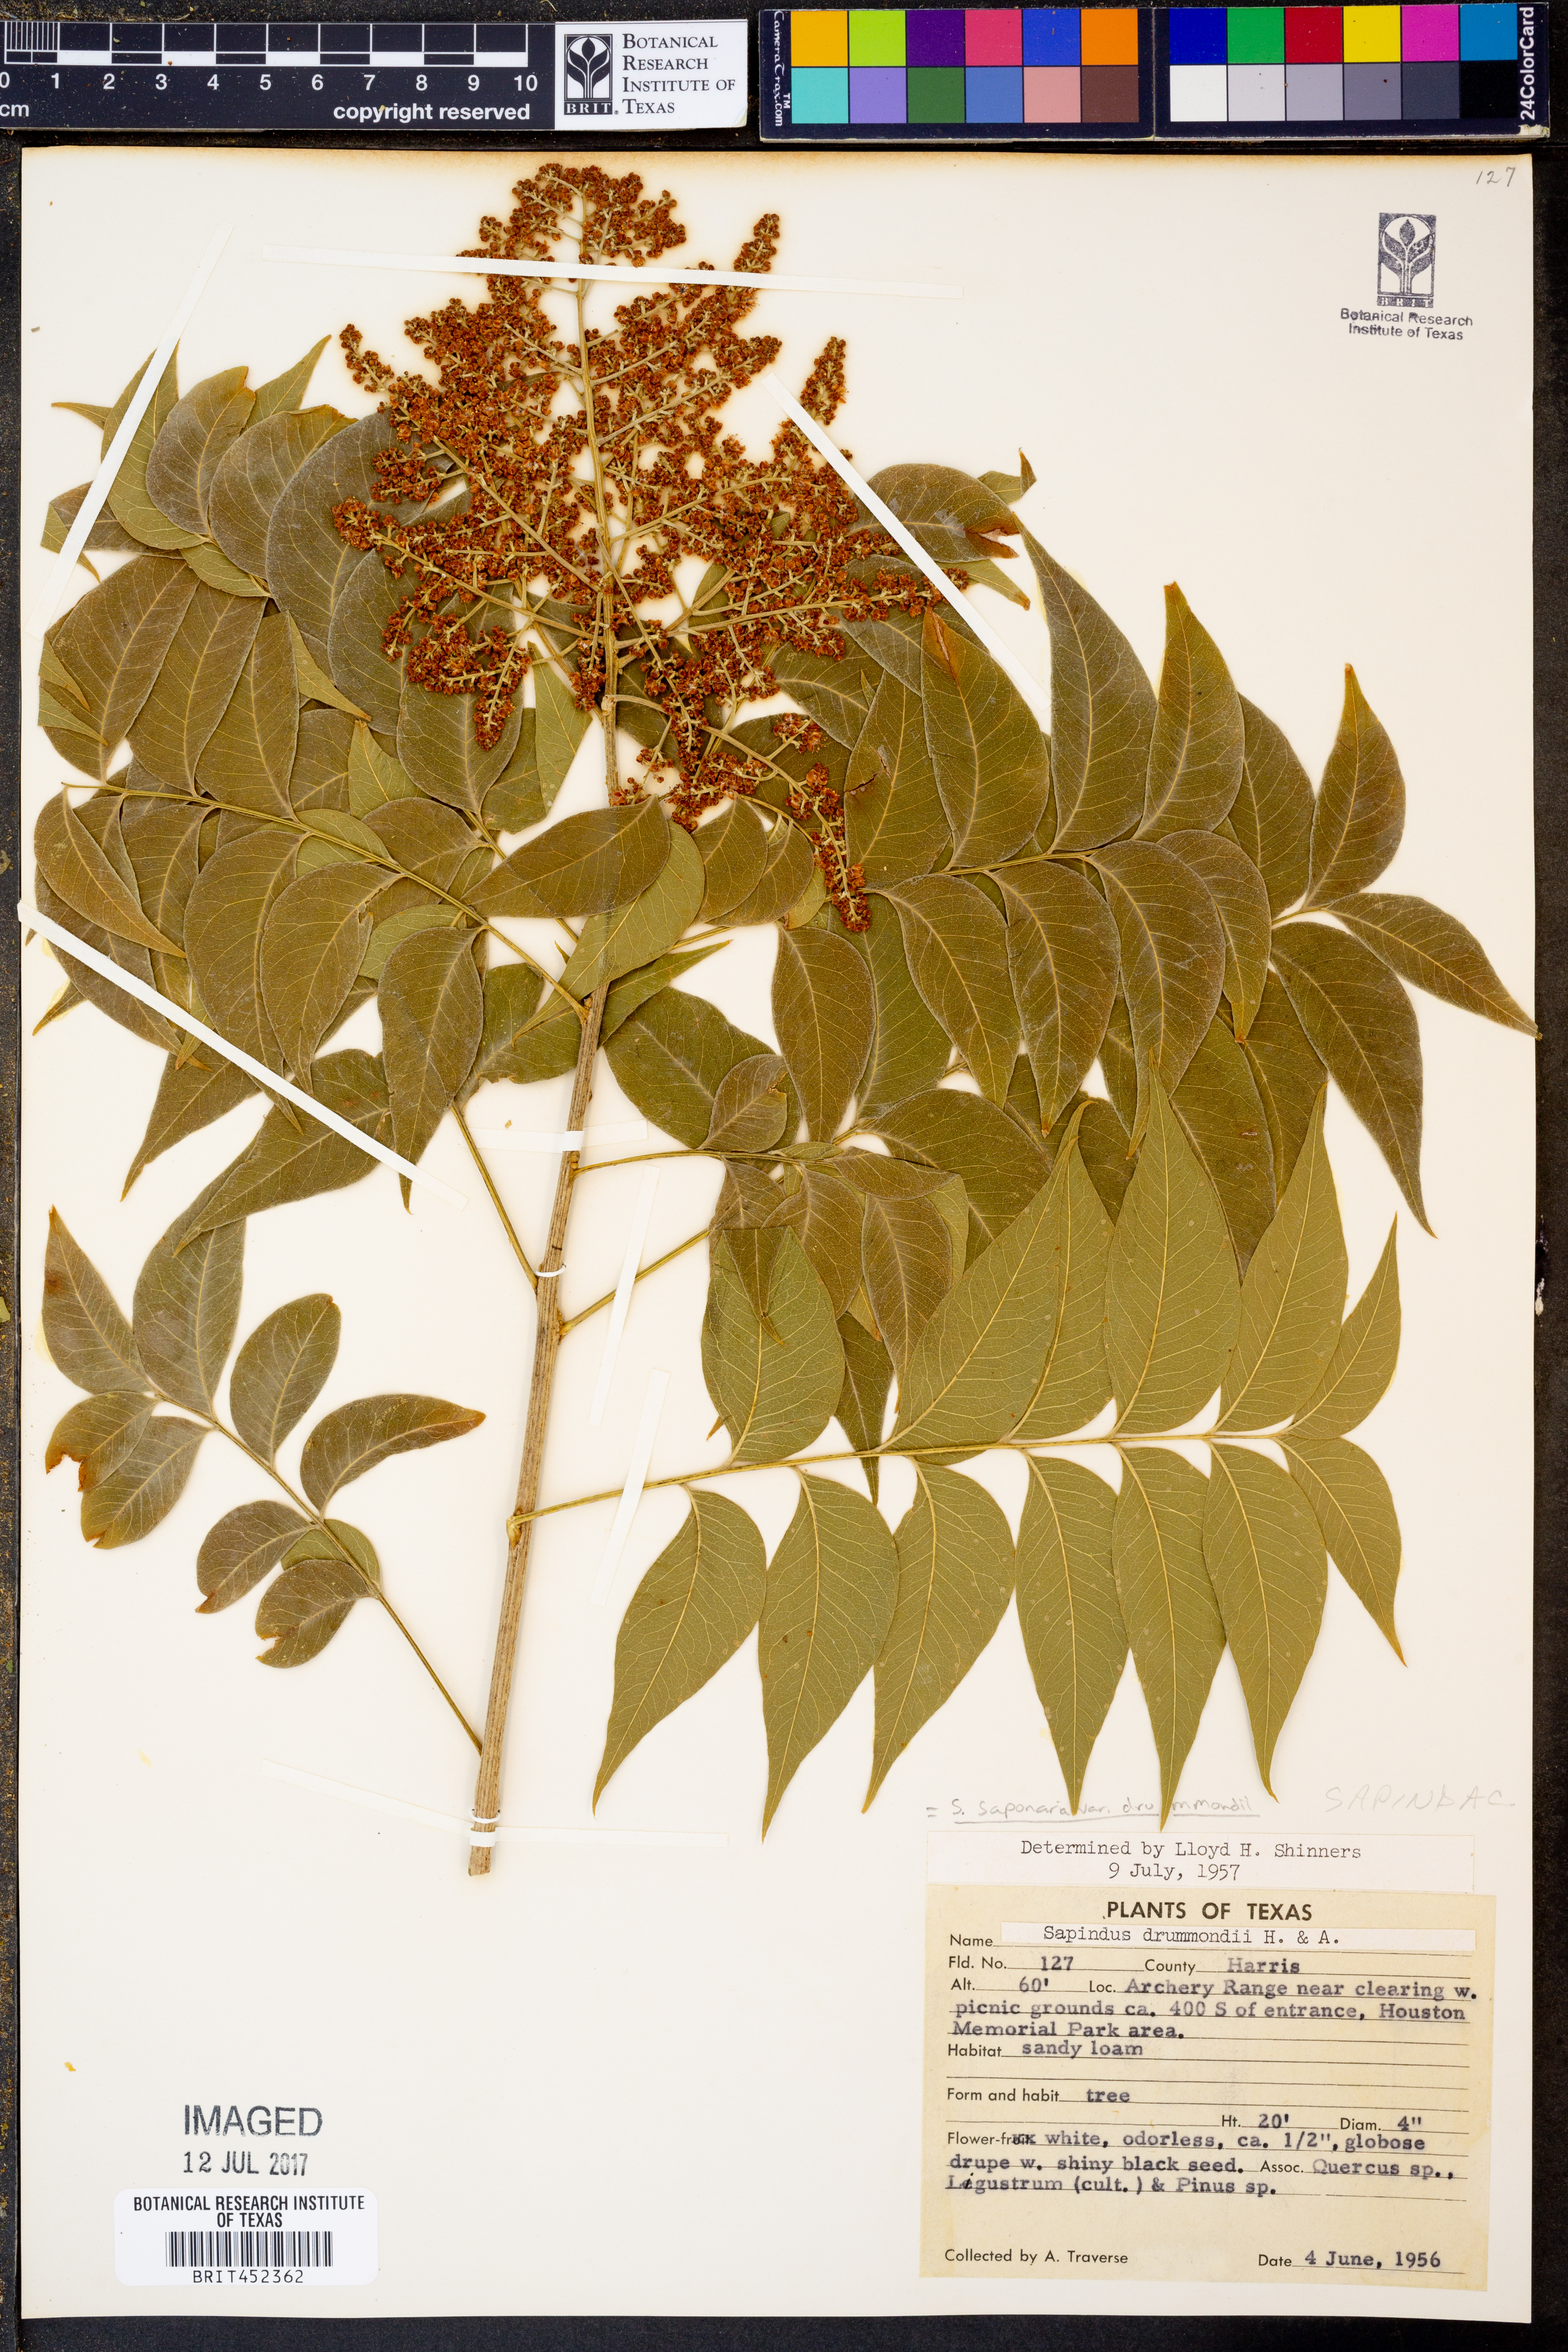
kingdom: Plantae
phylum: Tracheophyta
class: Magnoliopsida
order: Sapindales
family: Sapindaceae
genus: Sapindus
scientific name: Sapindus drummondii
